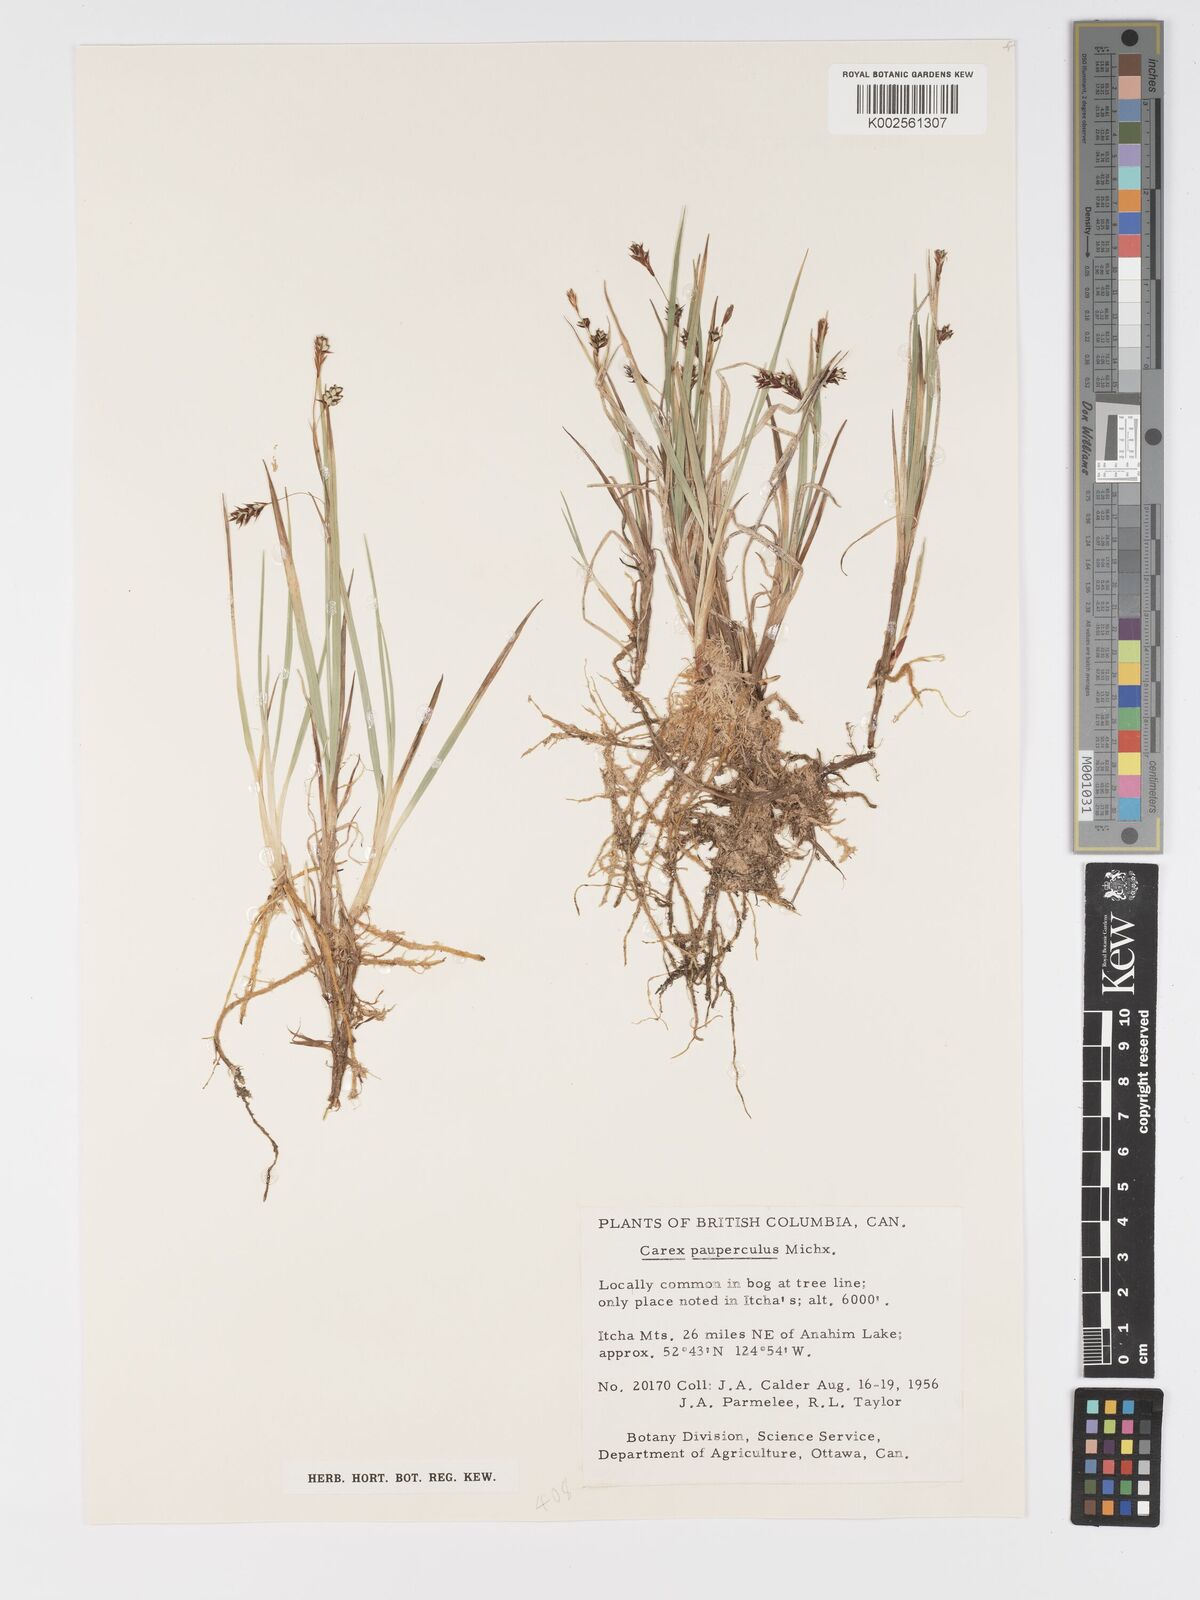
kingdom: Plantae
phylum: Tracheophyta
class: Liliopsida
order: Poales
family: Cyperaceae
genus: Carex
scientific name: Carex magellanica
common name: Bog sedge
